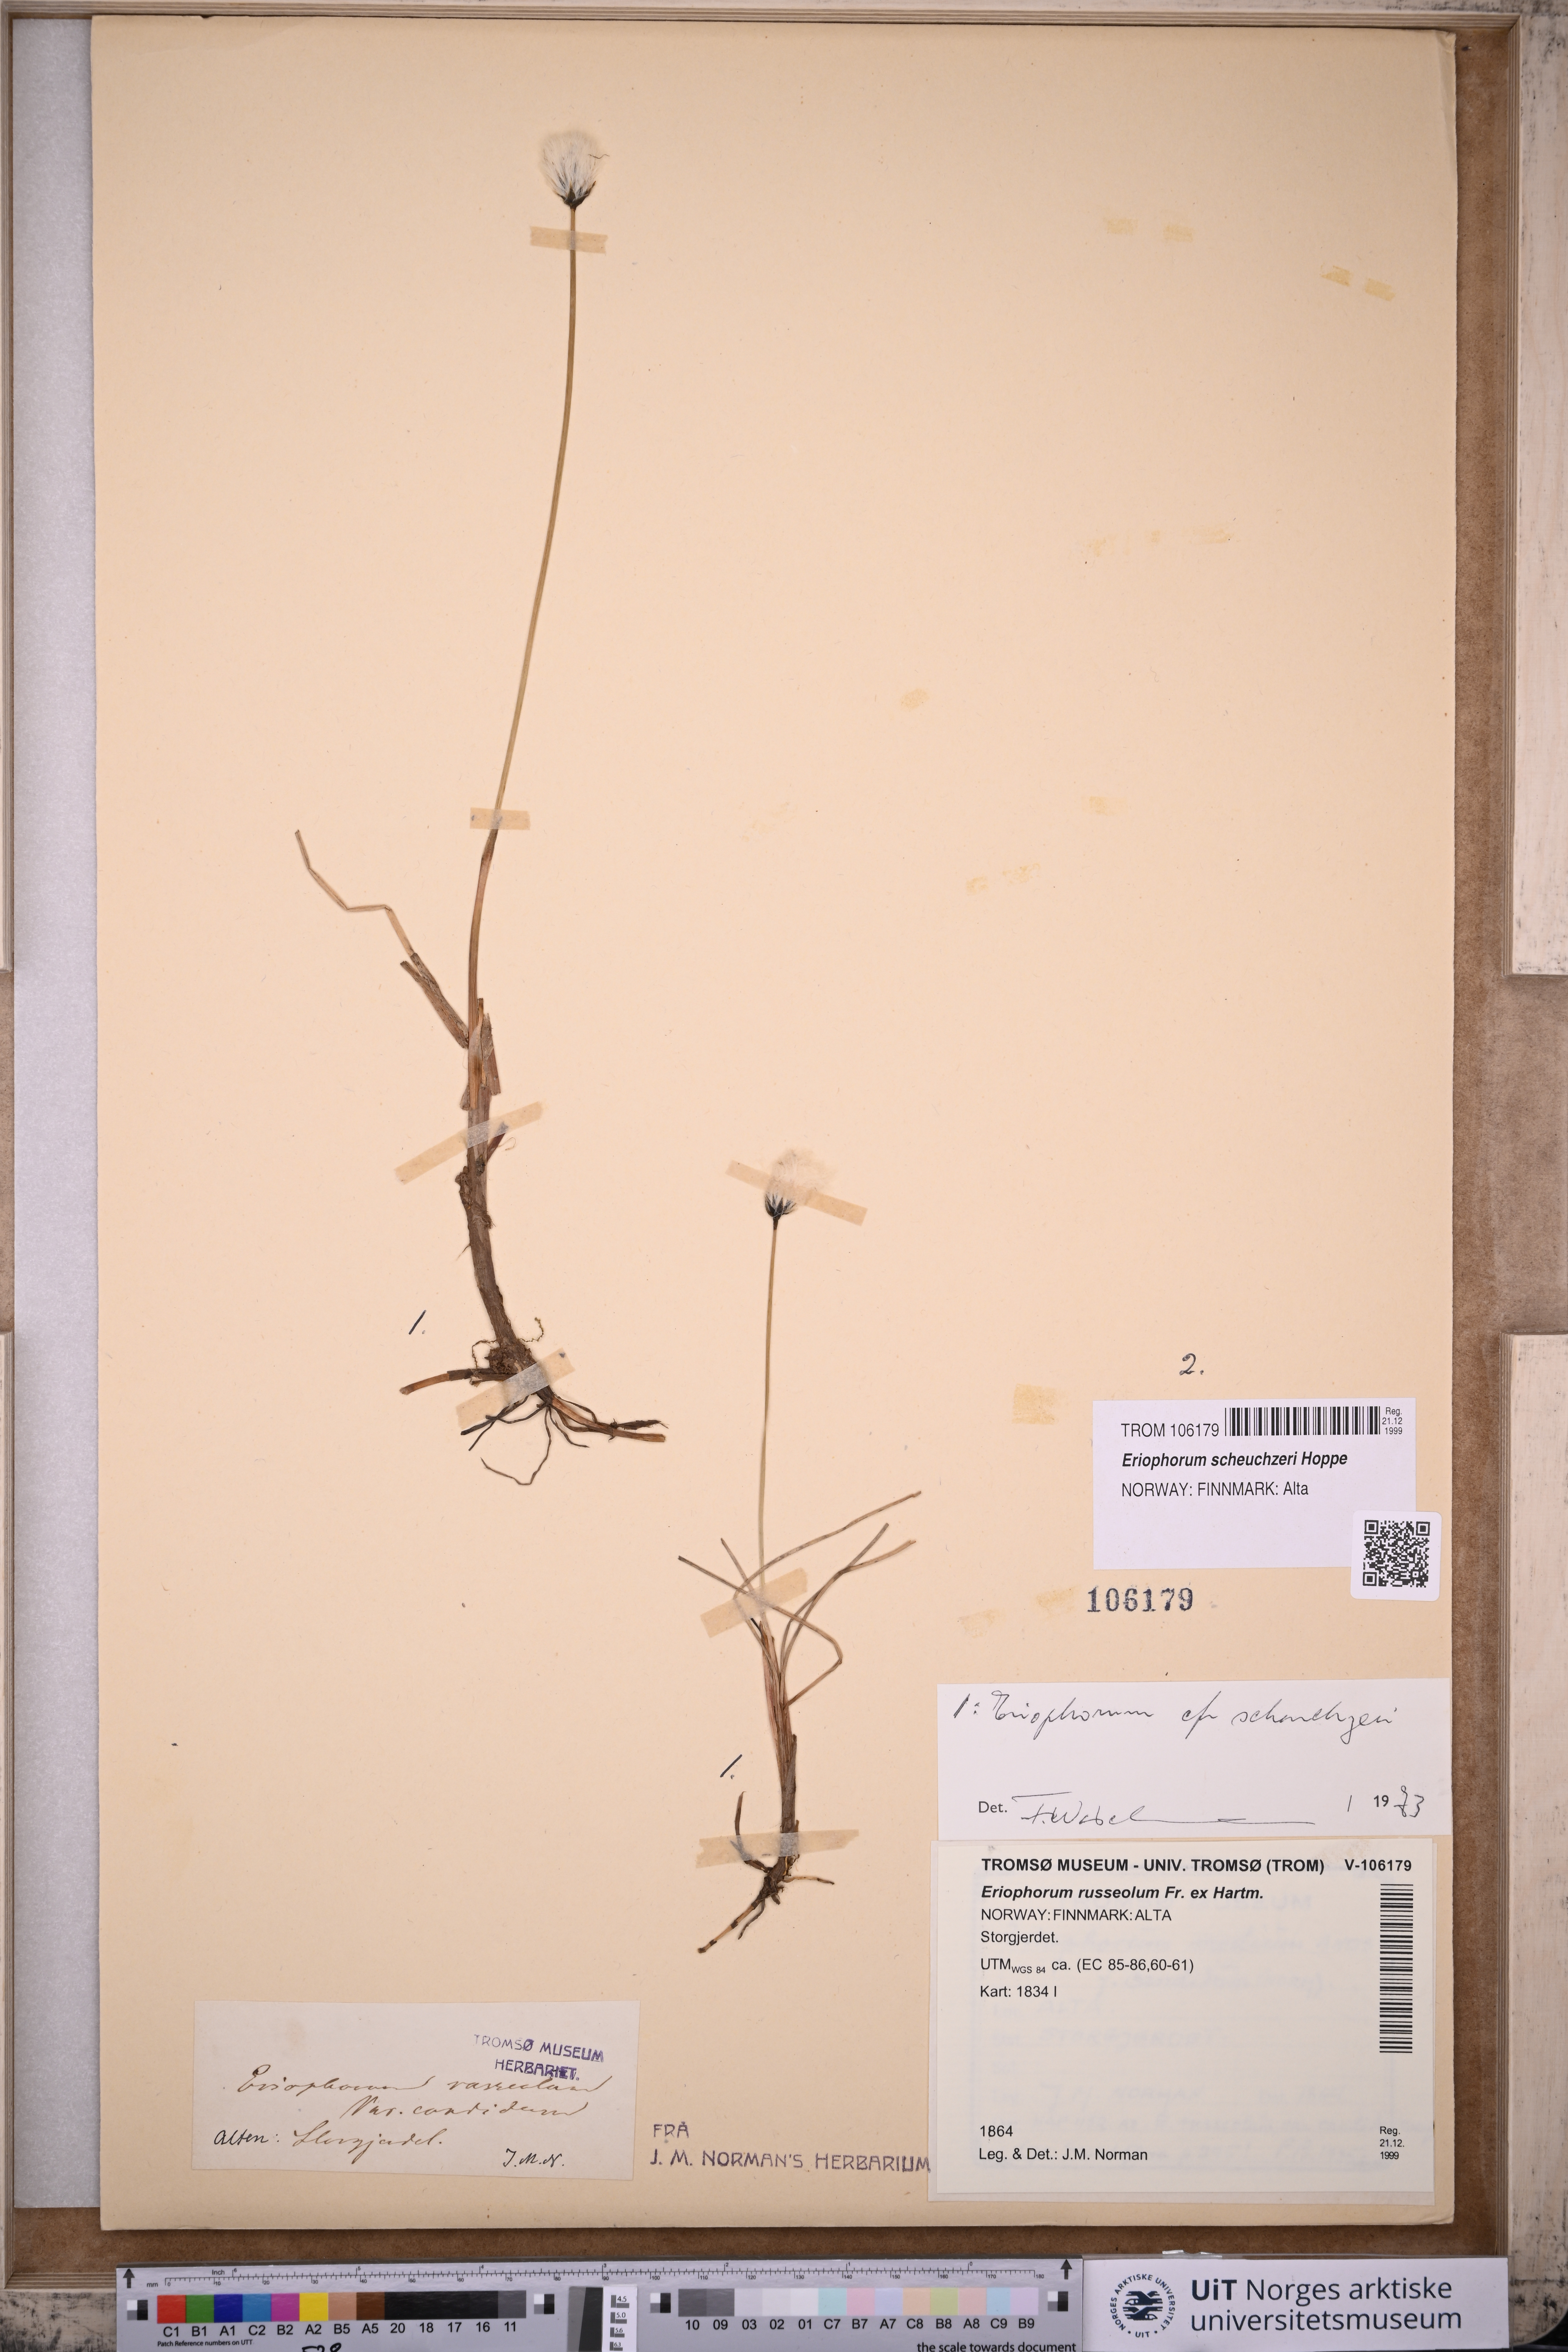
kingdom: Plantae
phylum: Tracheophyta
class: Liliopsida
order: Poales
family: Cyperaceae
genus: Eriophorum
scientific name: Eriophorum scheuchzeri
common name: Scheuchzer's cottongrass
